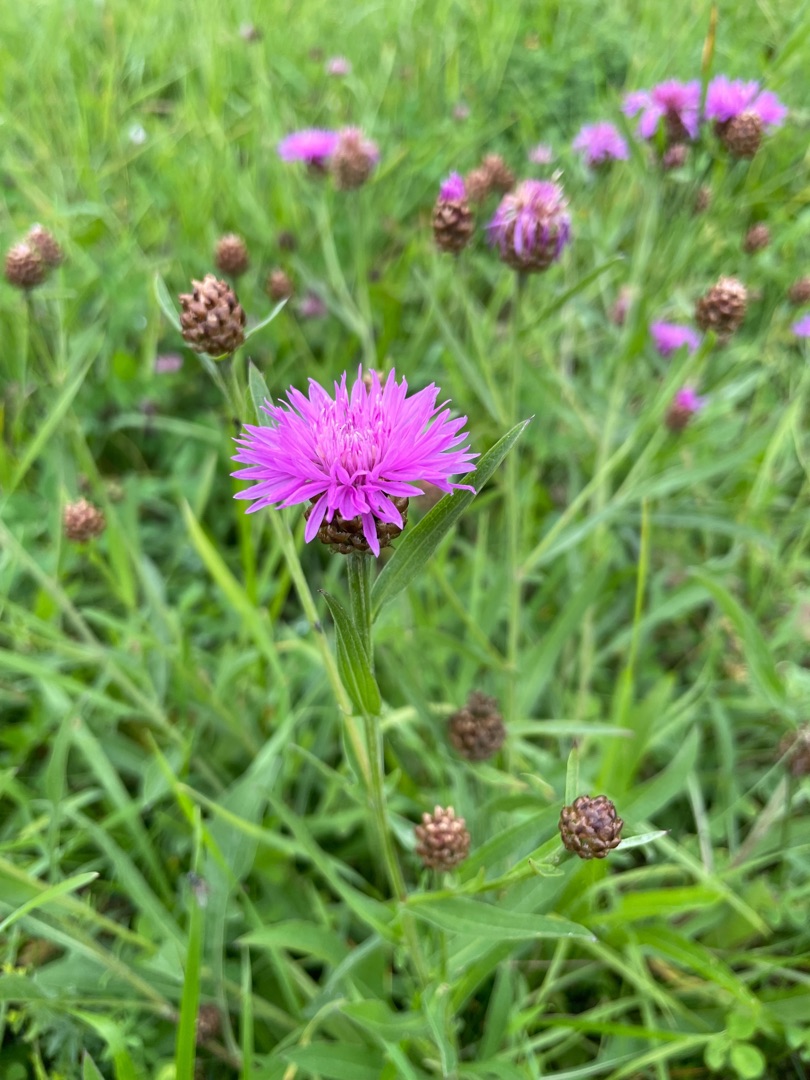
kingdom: Plantae
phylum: Tracheophyta
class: Magnoliopsida
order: Asterales
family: Asteraceae
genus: Centaurea
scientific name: Centaurea jacea
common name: Almindelig knopurt
